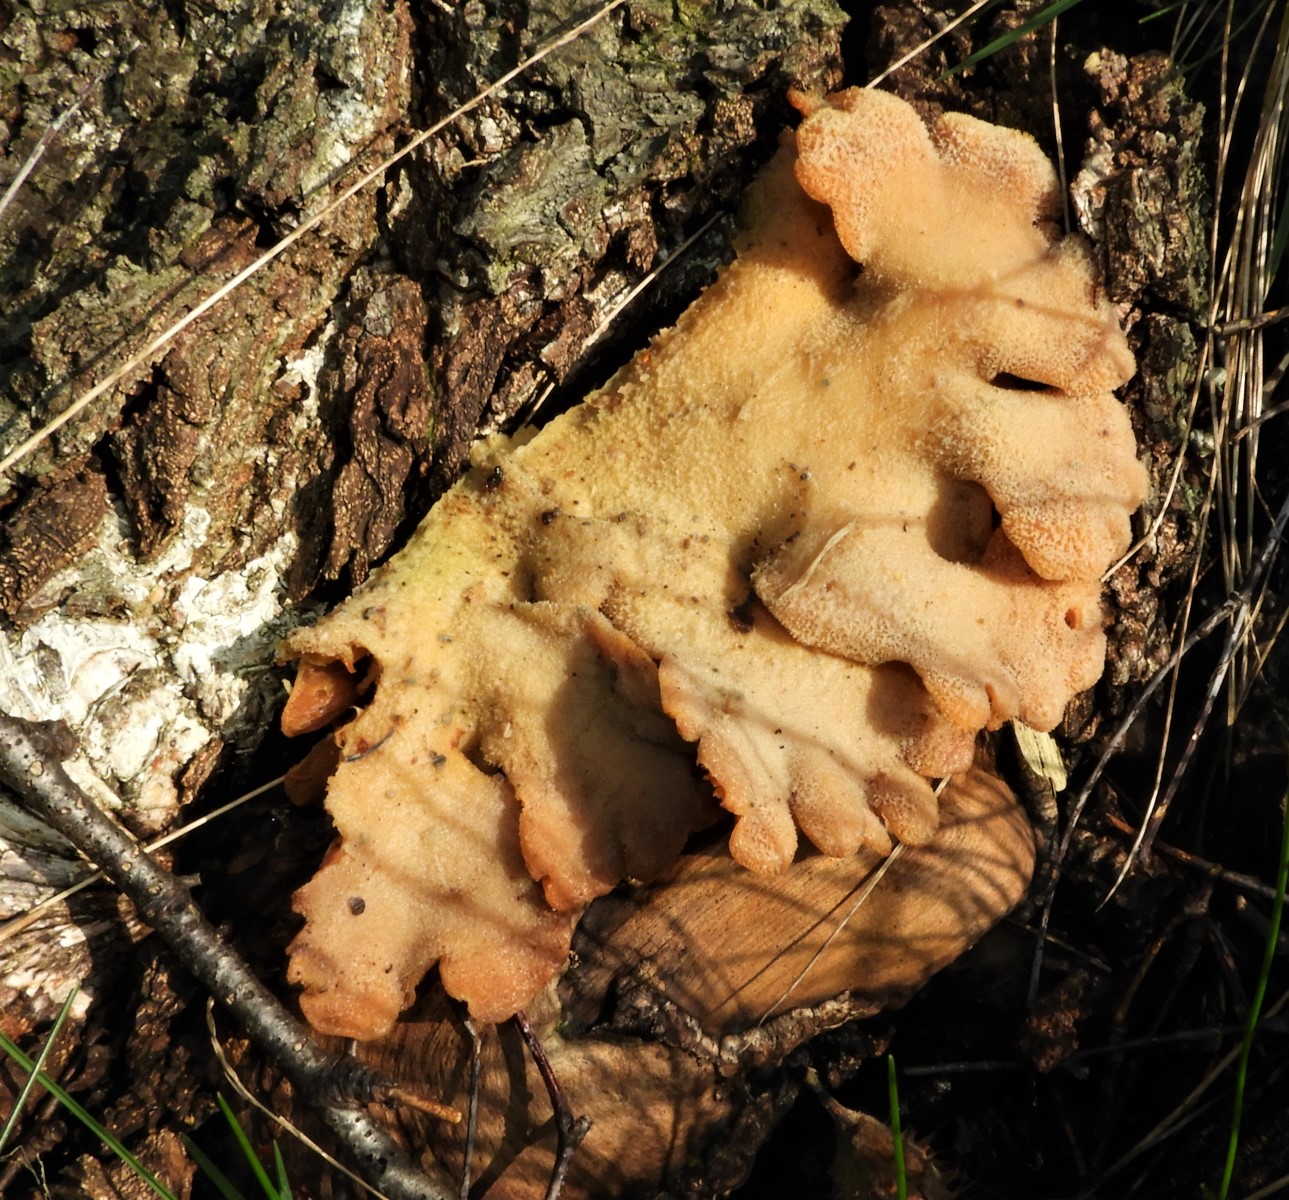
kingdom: Fungi
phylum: Basidiomycota
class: Agaricomycetes
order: Agaricales
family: Phyllotopsidaceae
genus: Phyllotopsis
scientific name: Phyllotopsis nidulans
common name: okkerblad
